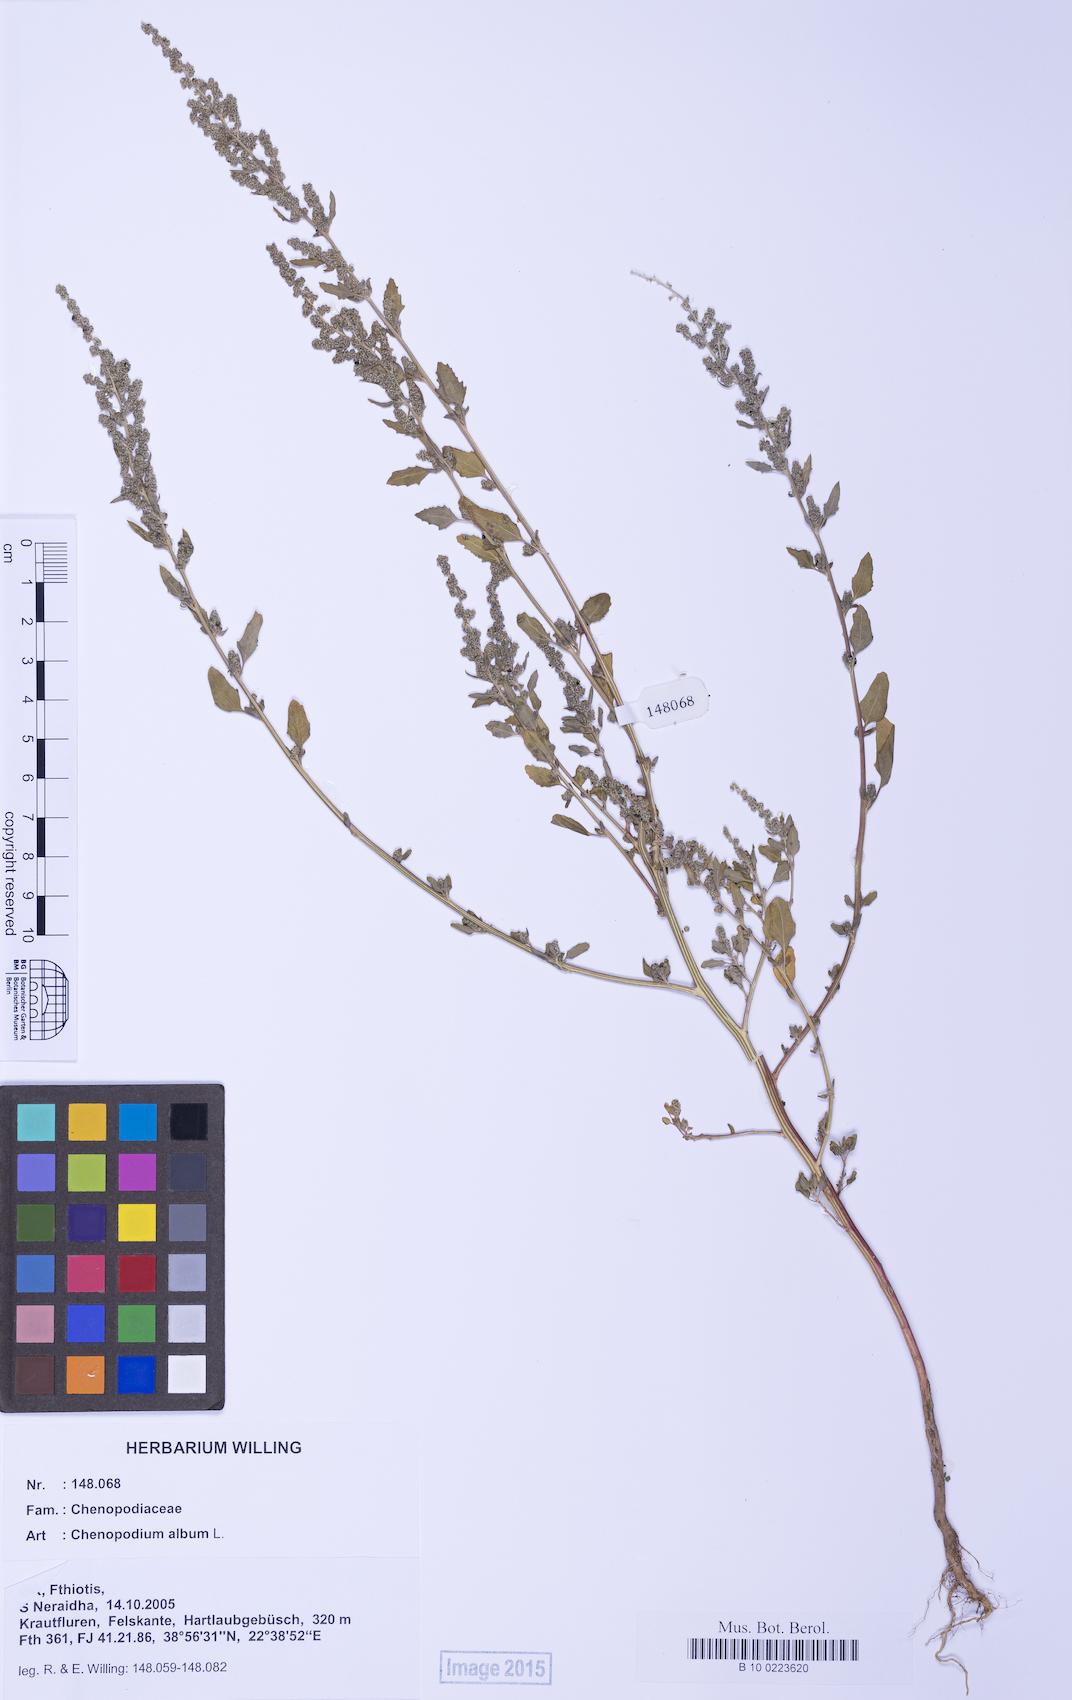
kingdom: Plantae
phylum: Tracheophyta
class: Magnoliopsida
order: Caryophyllales
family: Amaranthaceae
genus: Chenopodium
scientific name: Chenopodium album
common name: Fat-hen
